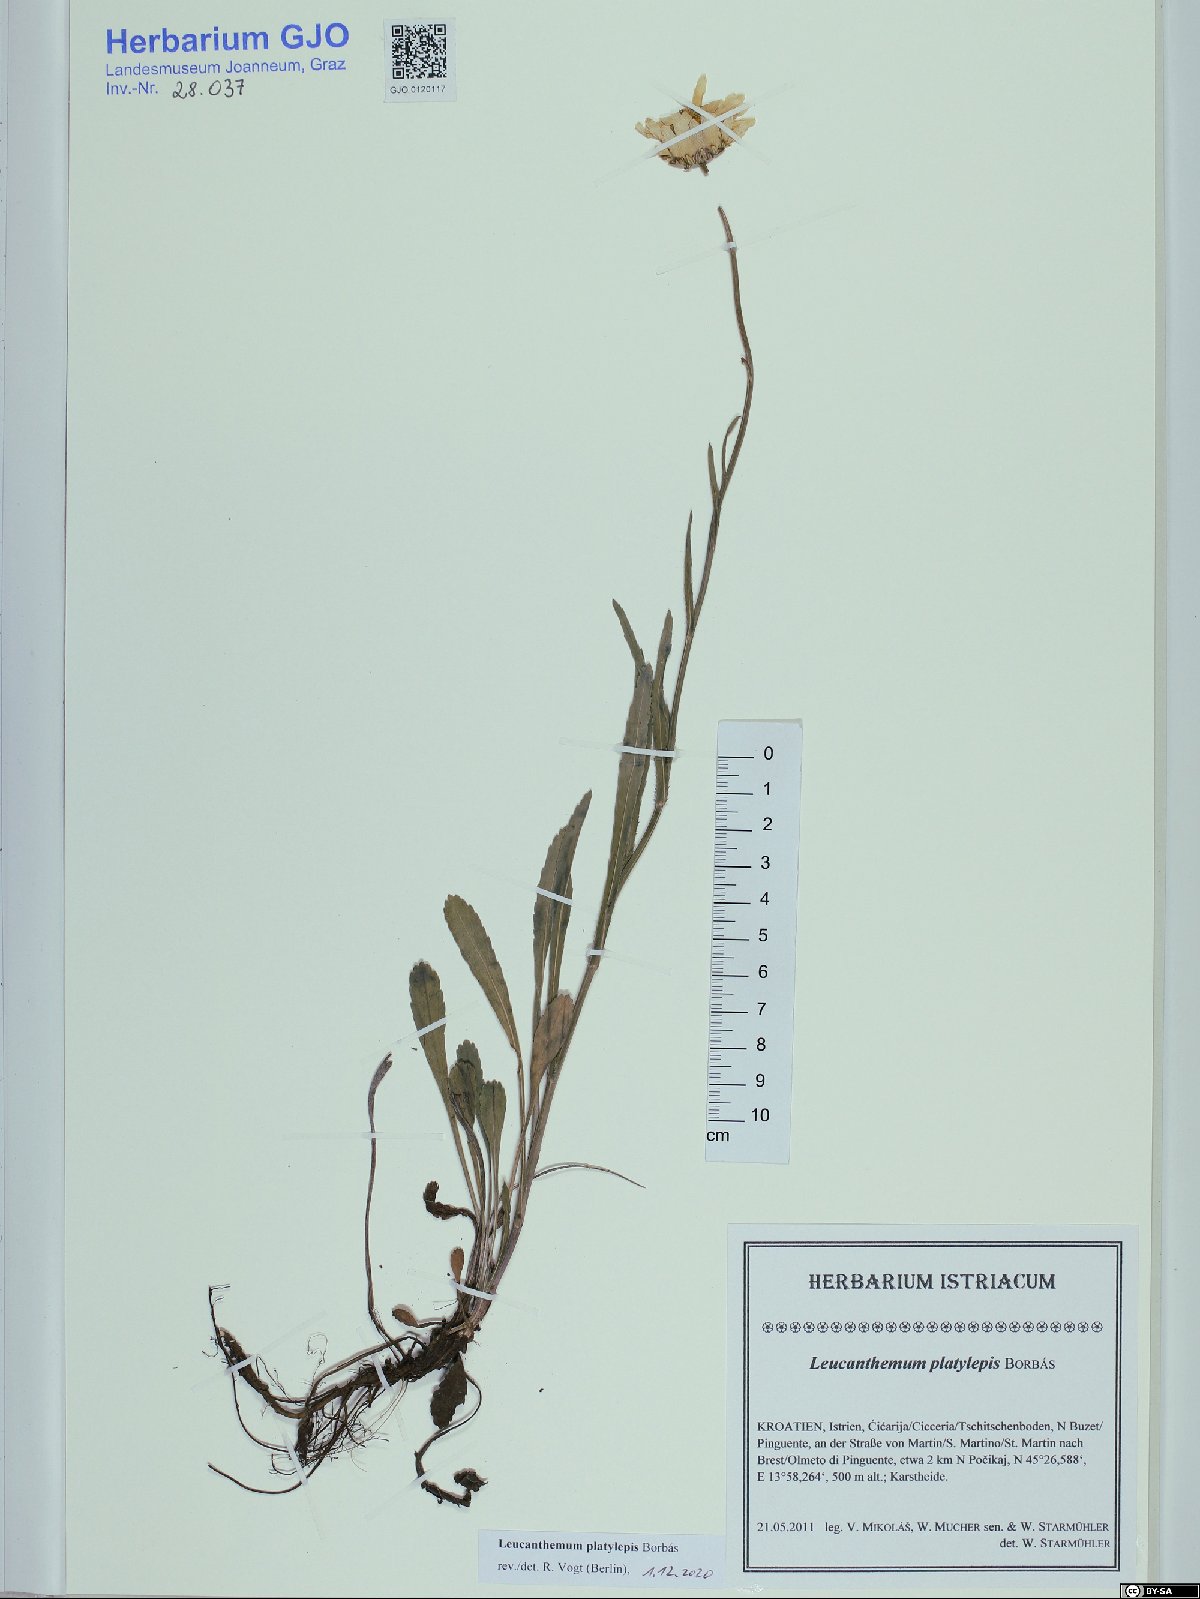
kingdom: Plantae
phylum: Tracheophyta
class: Magnoliopsida
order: Asterales
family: Asteraceae
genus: Leucanthemum
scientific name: Leucanthemum platylepis
